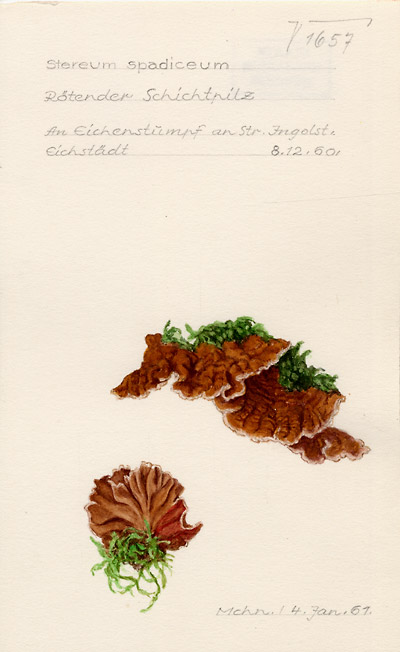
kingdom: Fungi
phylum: Basidiomycota
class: Agaricomycetes
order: Russulales
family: Stereaceae
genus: Stereum
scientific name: Stereum gausapatum
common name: Bleeding oak crust
